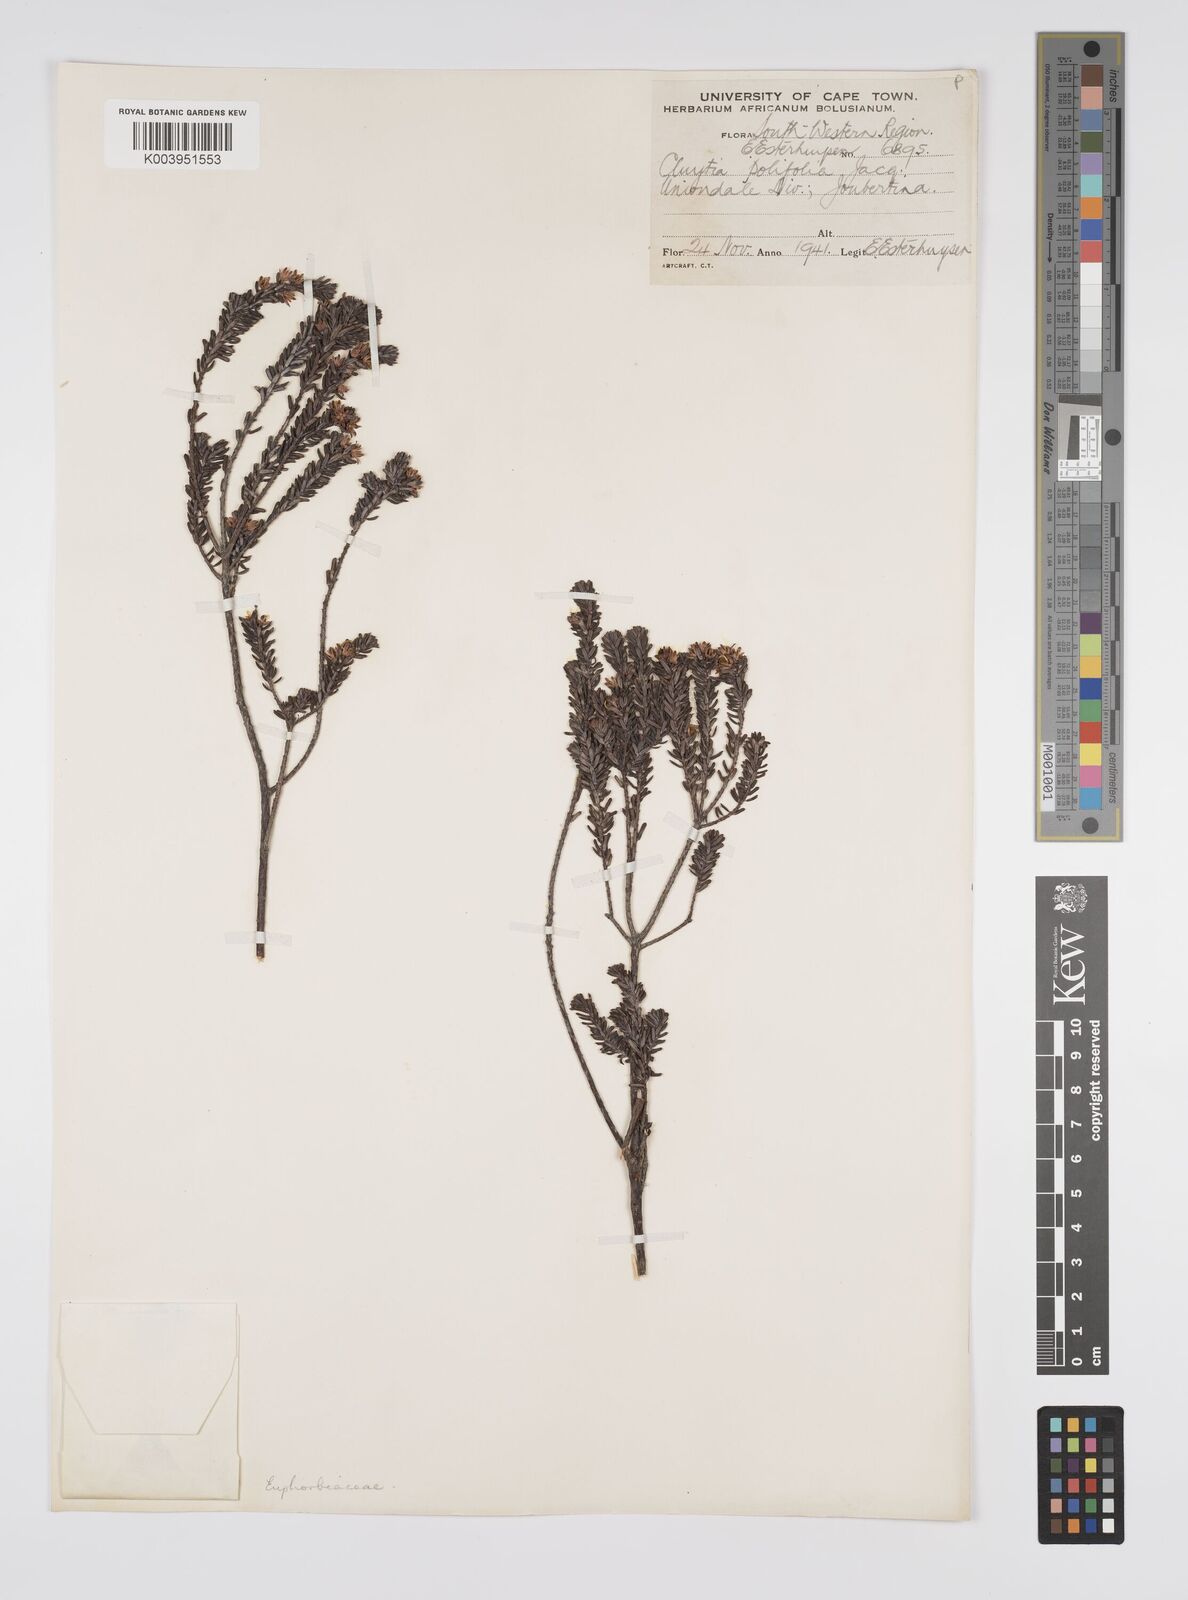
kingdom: Plantae
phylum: Tracheophyta
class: Magnoliopsida
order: Malpighiales
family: Peraceae
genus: Clutia
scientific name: Clutia
